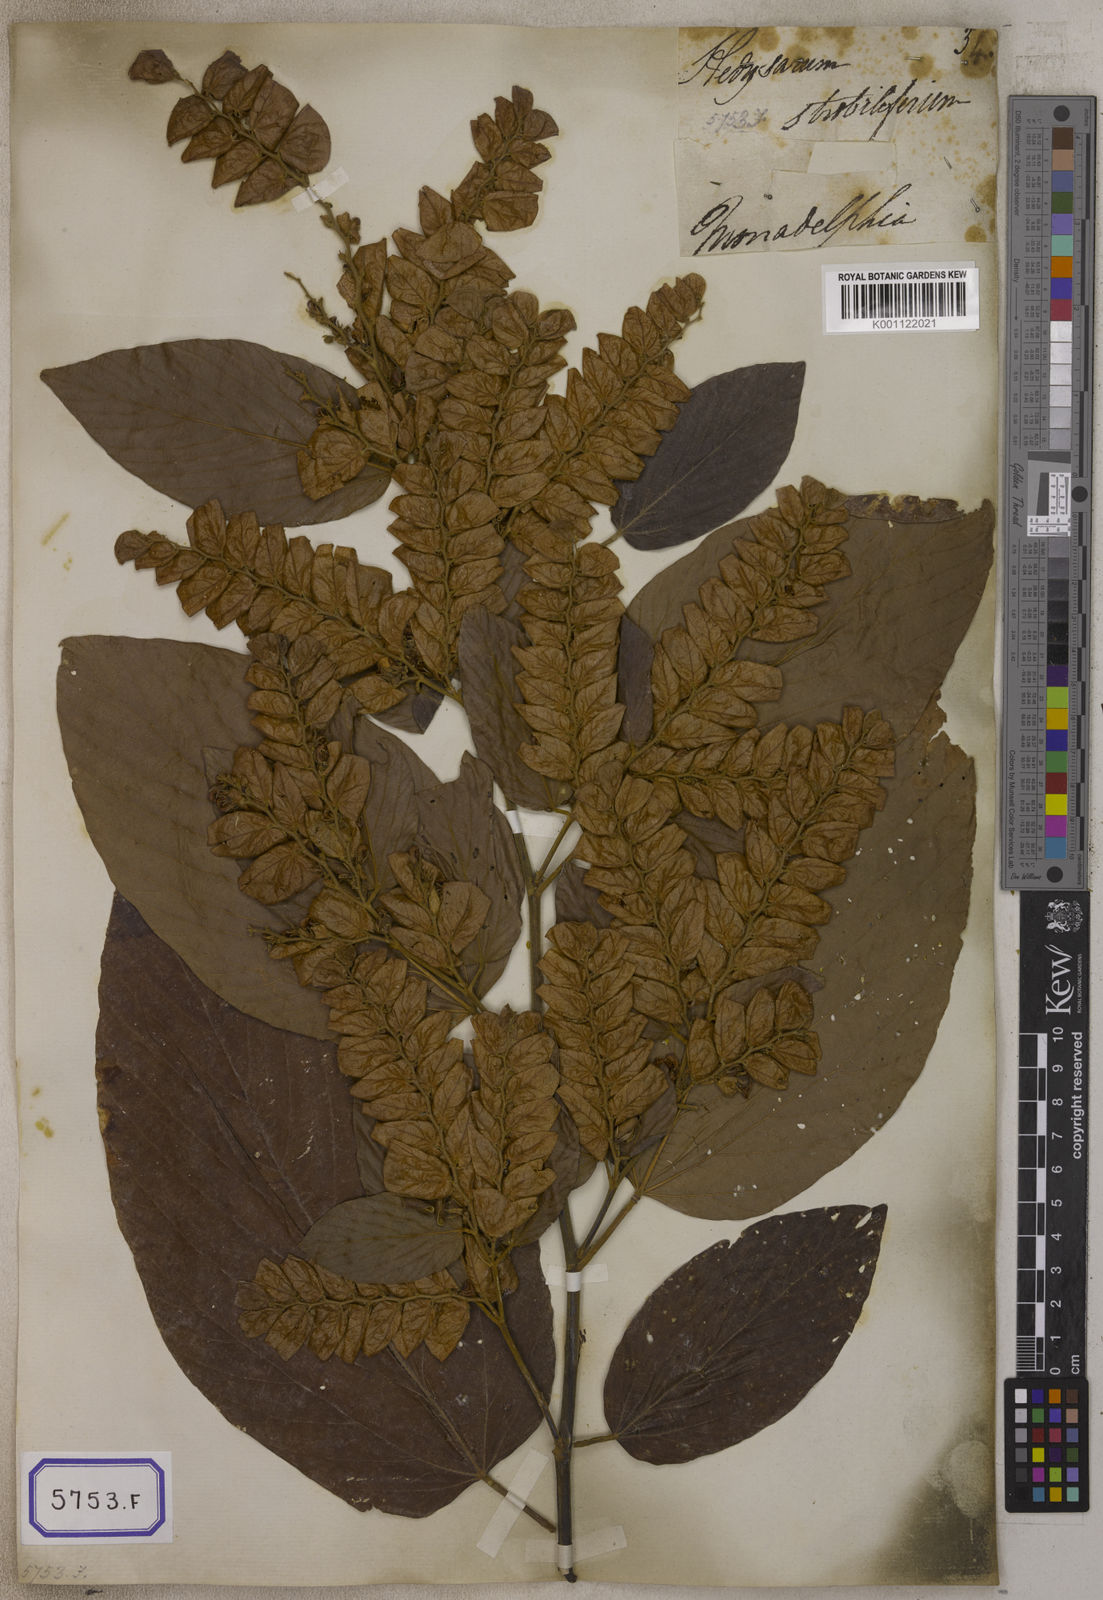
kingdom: Plantae
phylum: Tracheophyta
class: Magnoliopsida
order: Fabales
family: Fabaceae
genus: Flemingia
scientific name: Flemingia strobilifera
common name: Wild hops
